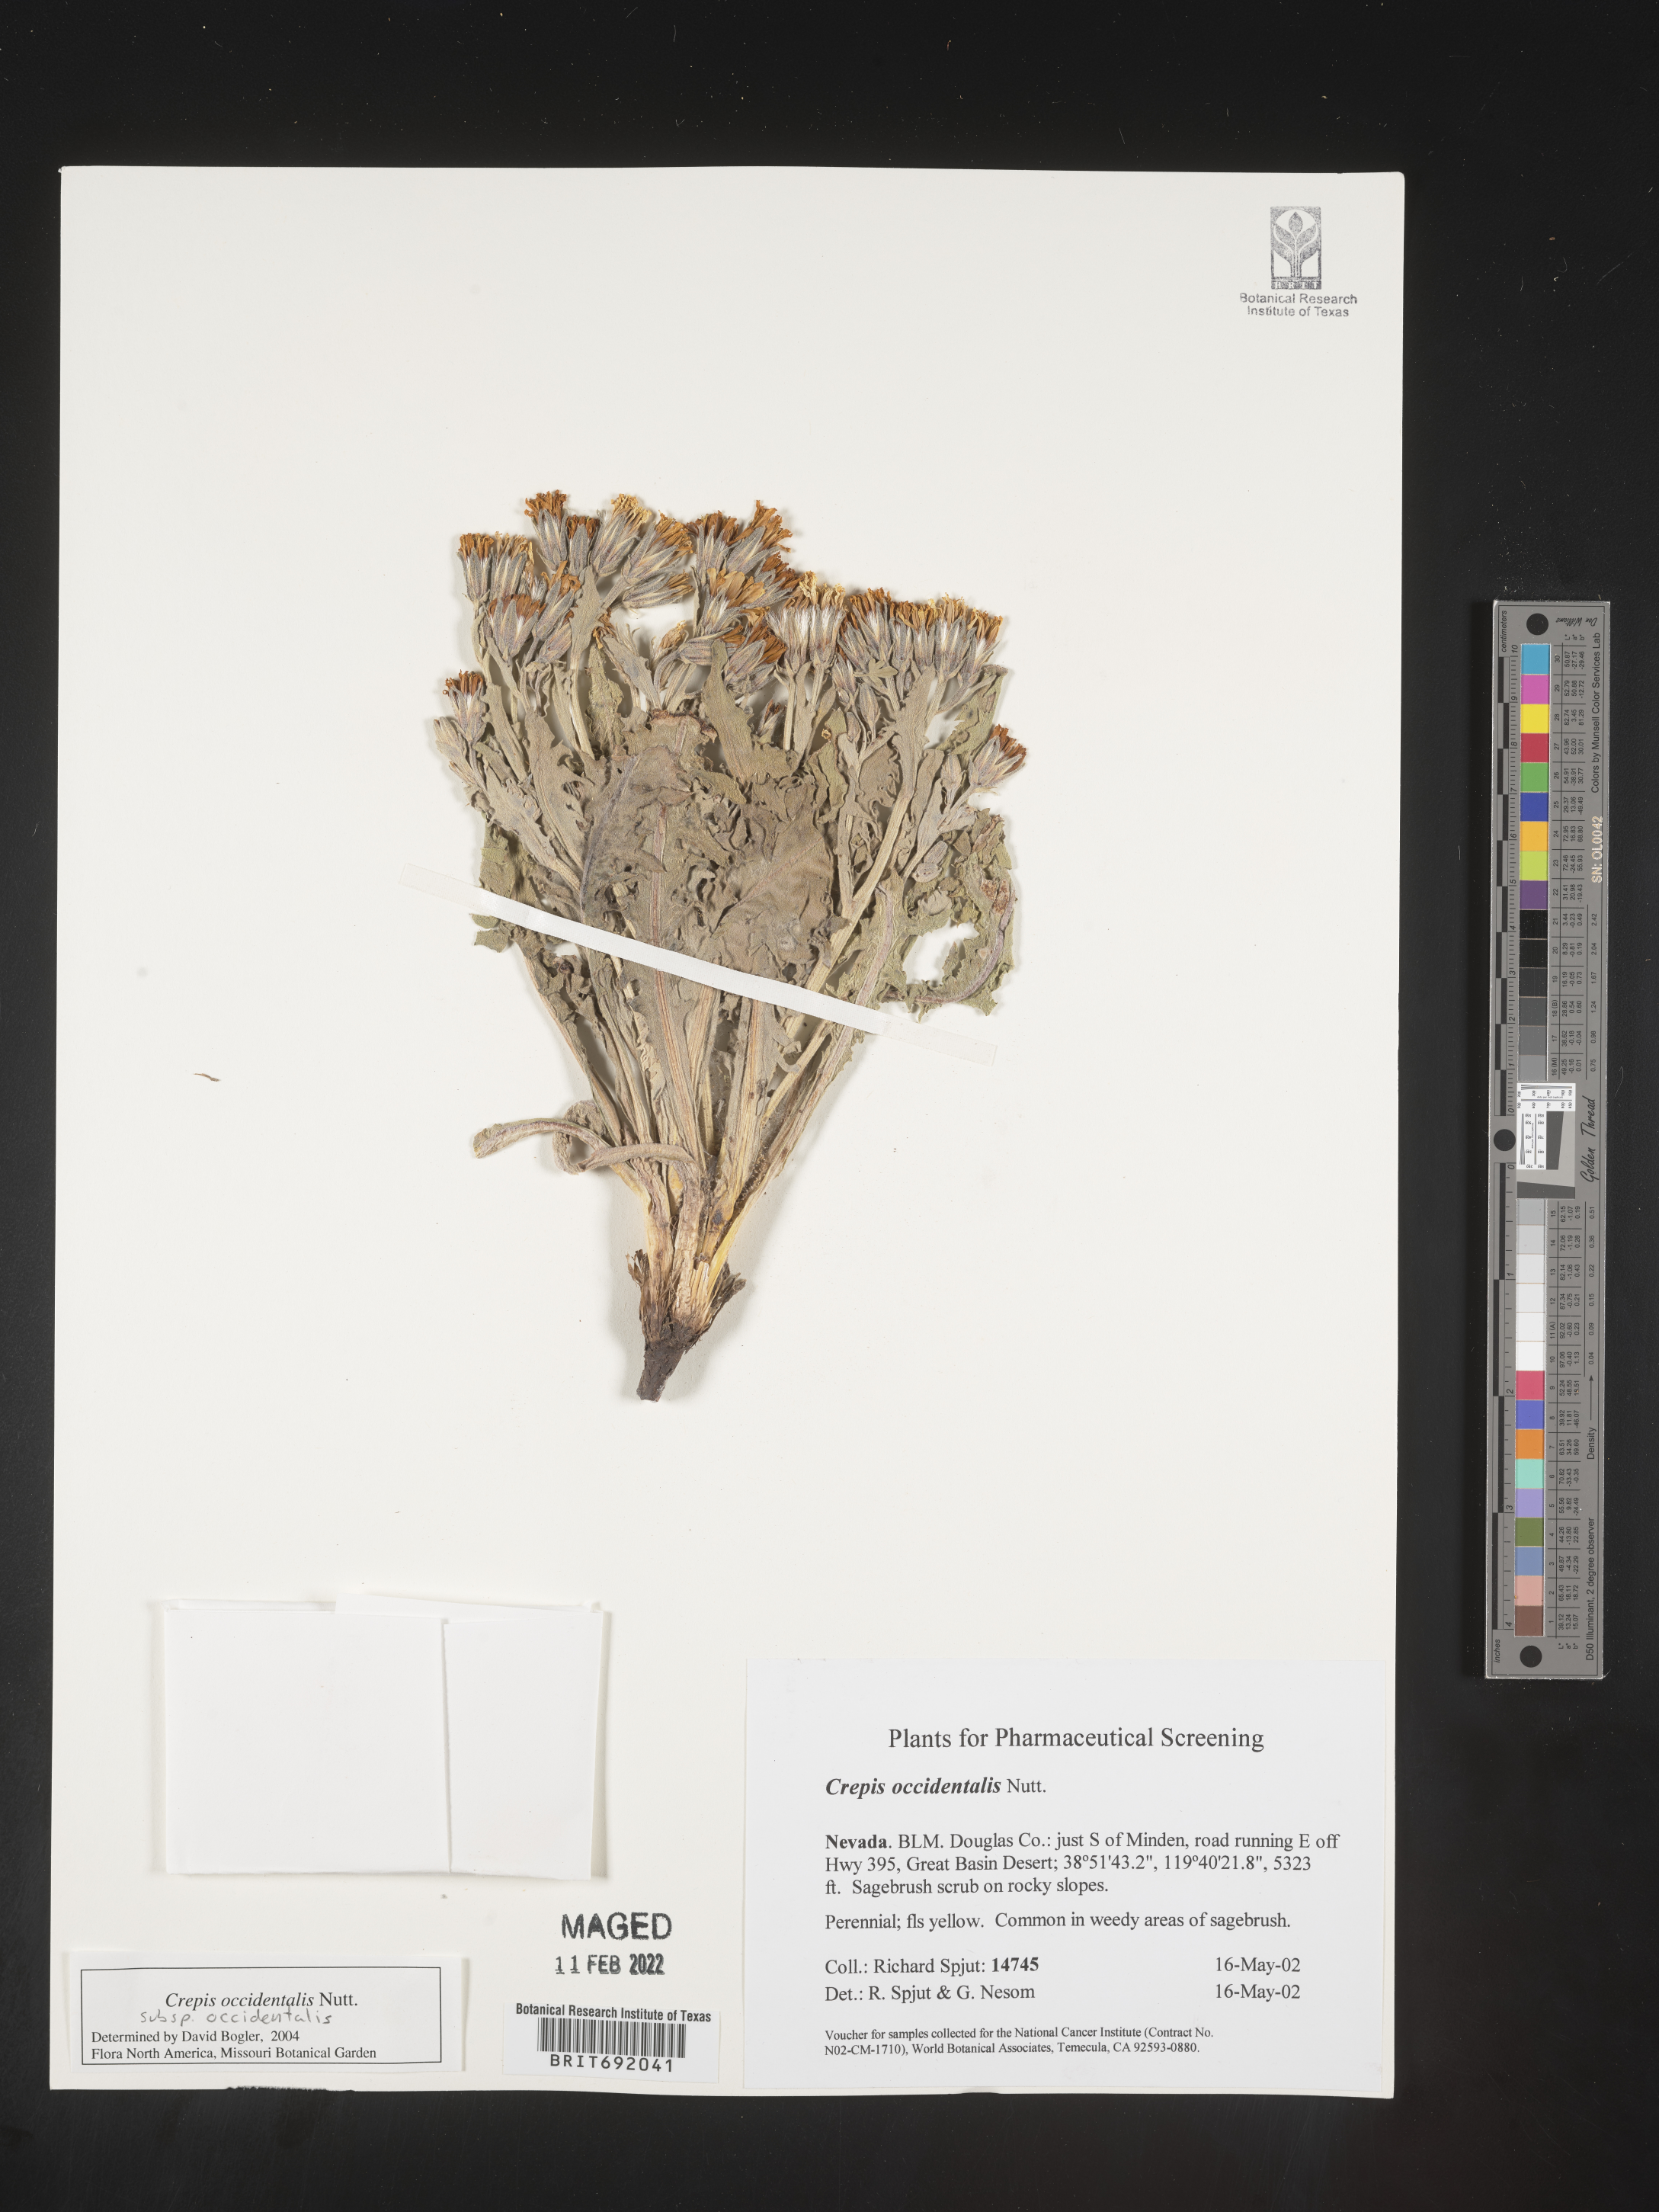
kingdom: Plantae
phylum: Tracheophyta
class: Magnoliopsida
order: Asterales
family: Asteraceae
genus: Crepis
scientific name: Crepis occidentalis
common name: Gray hawk's-beard
